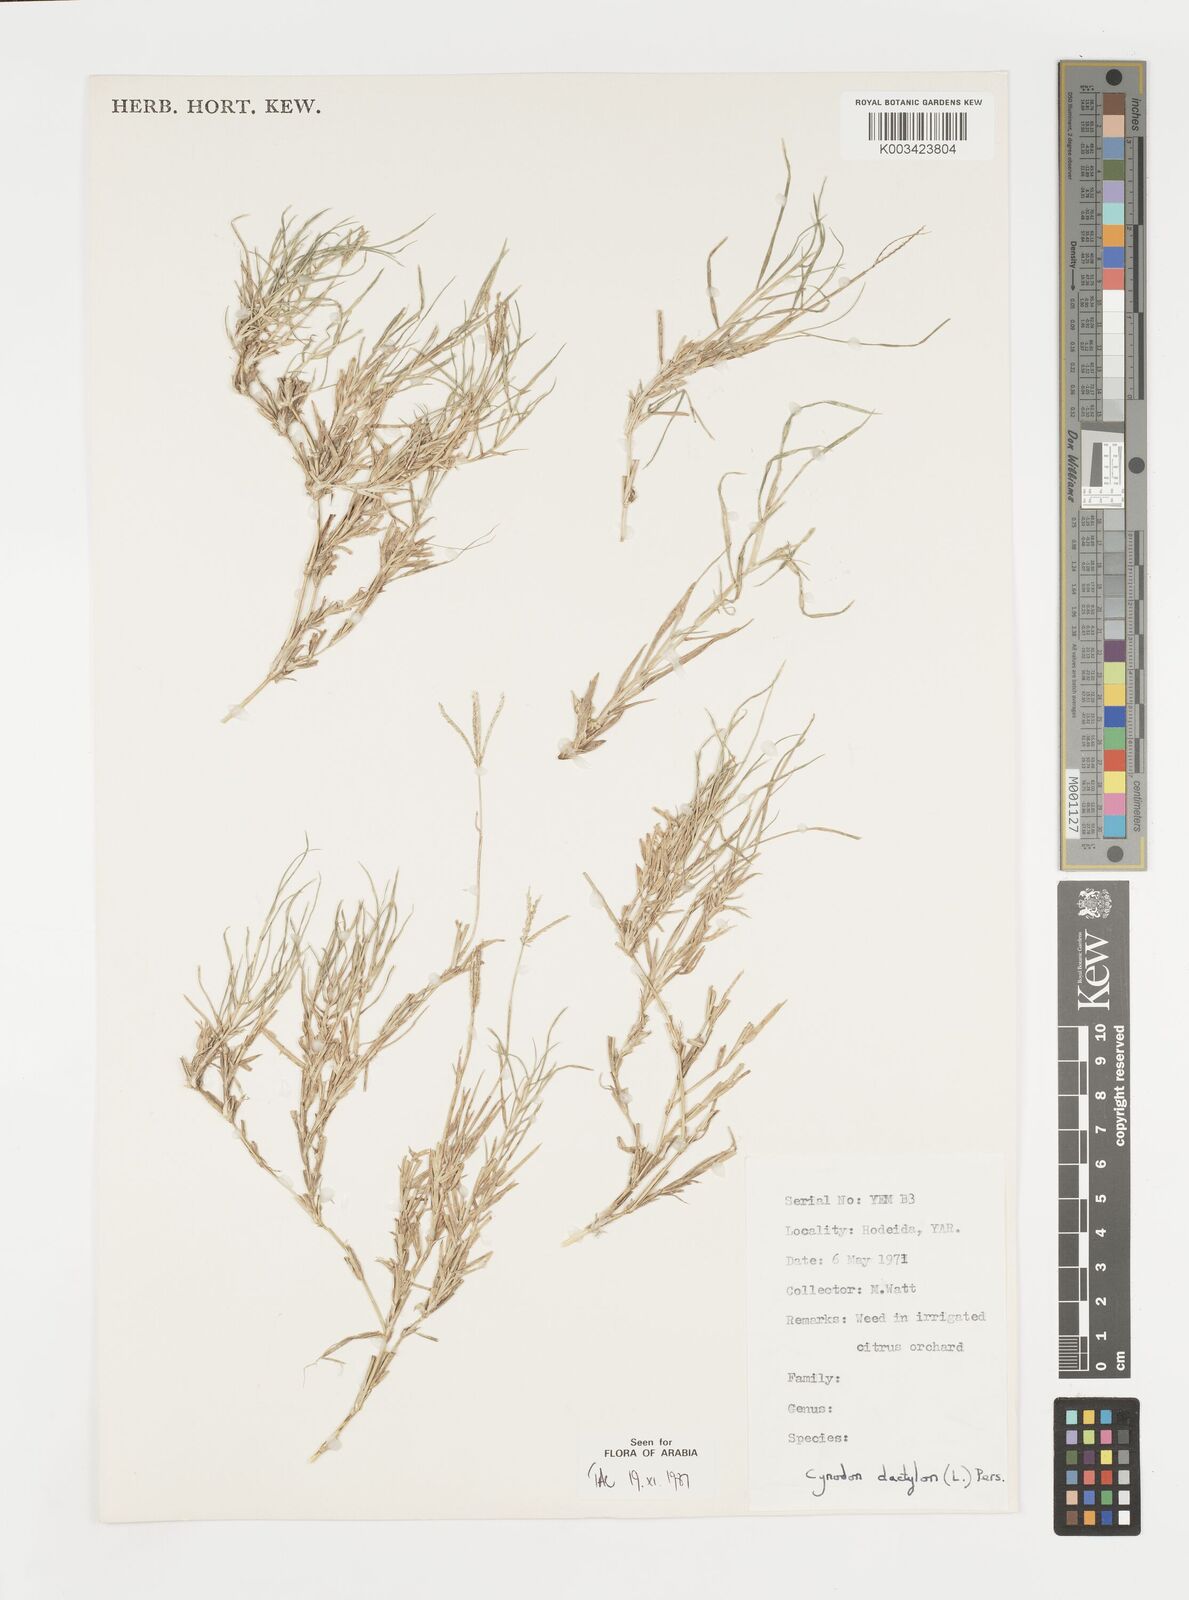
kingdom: Plantae
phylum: Tracheophyta
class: Liliopsida
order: Poales
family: Poaceae
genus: Cynodon
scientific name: Cynodon dactylon
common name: Bermuda grass
